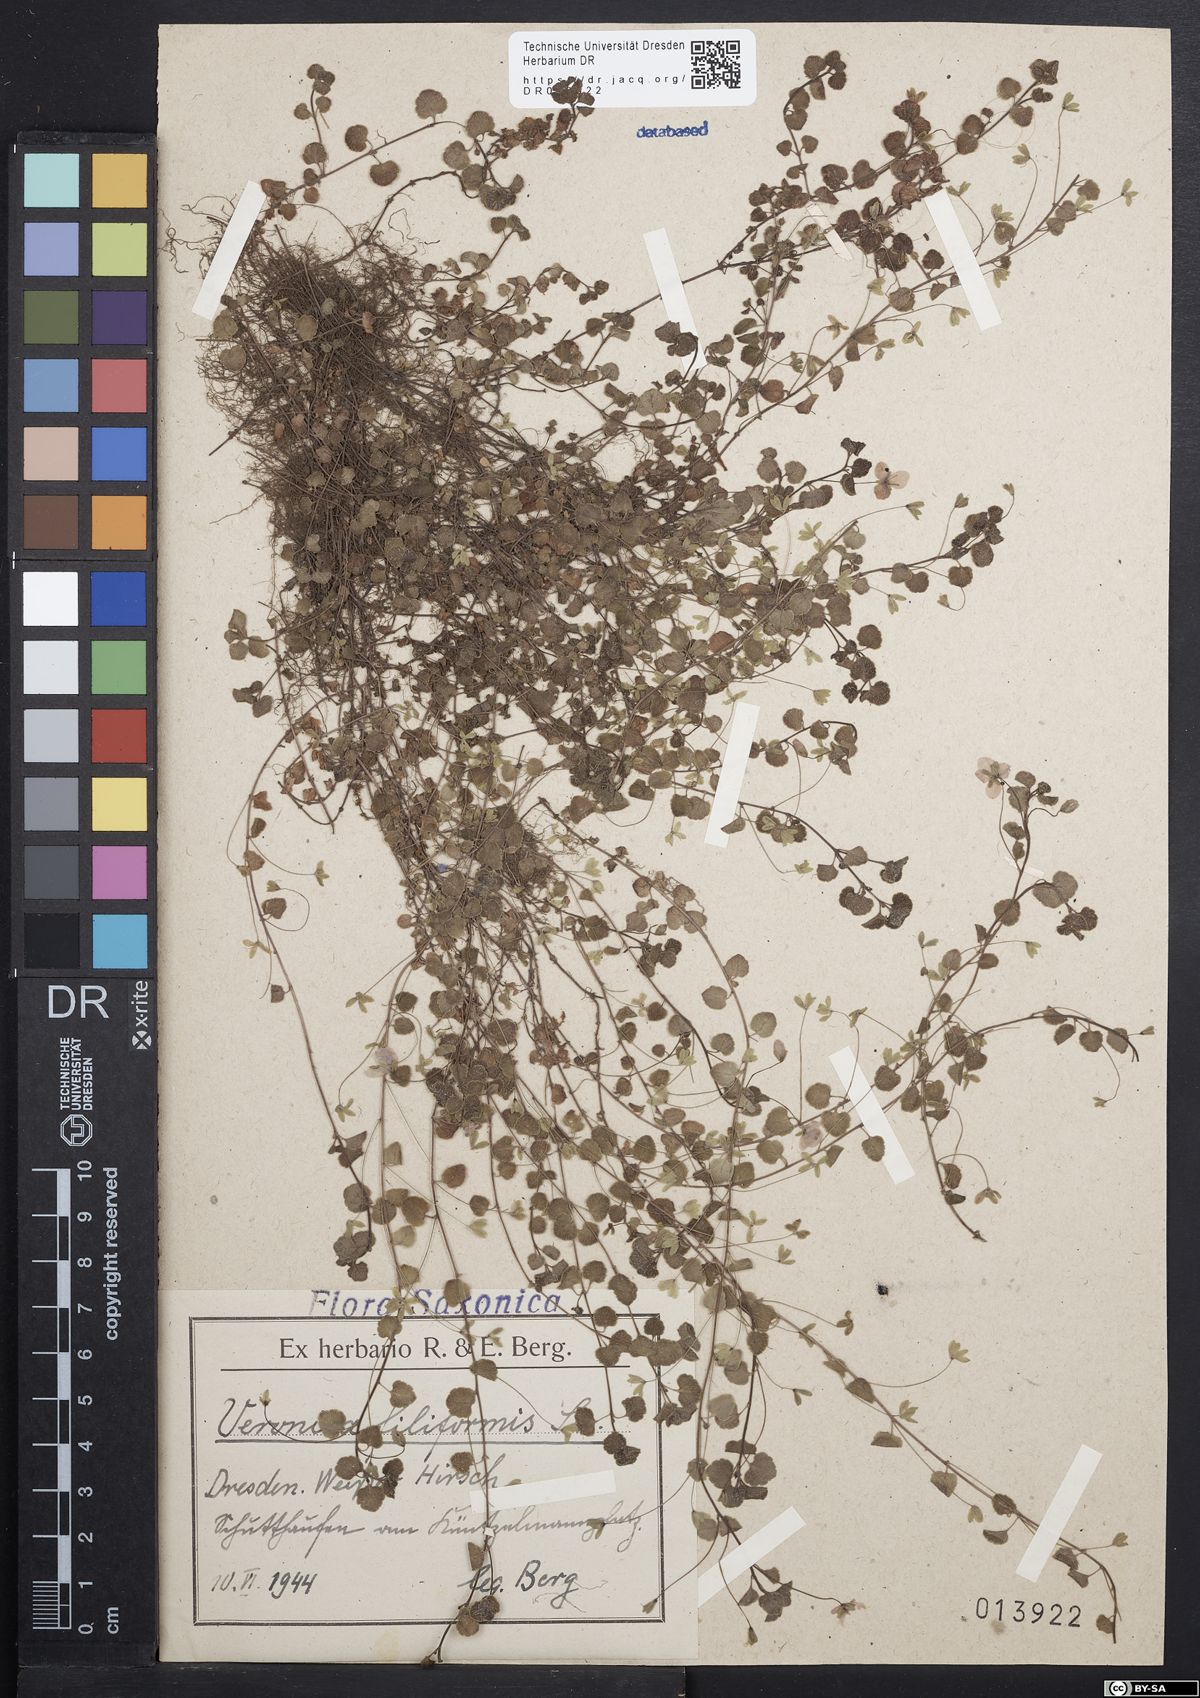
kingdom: Plantae
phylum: Tracheophyta
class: Magnoliopsida
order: Lamiales
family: Plantaginaceae
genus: Veronica
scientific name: Veronica filiformis
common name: Slender speedwell
